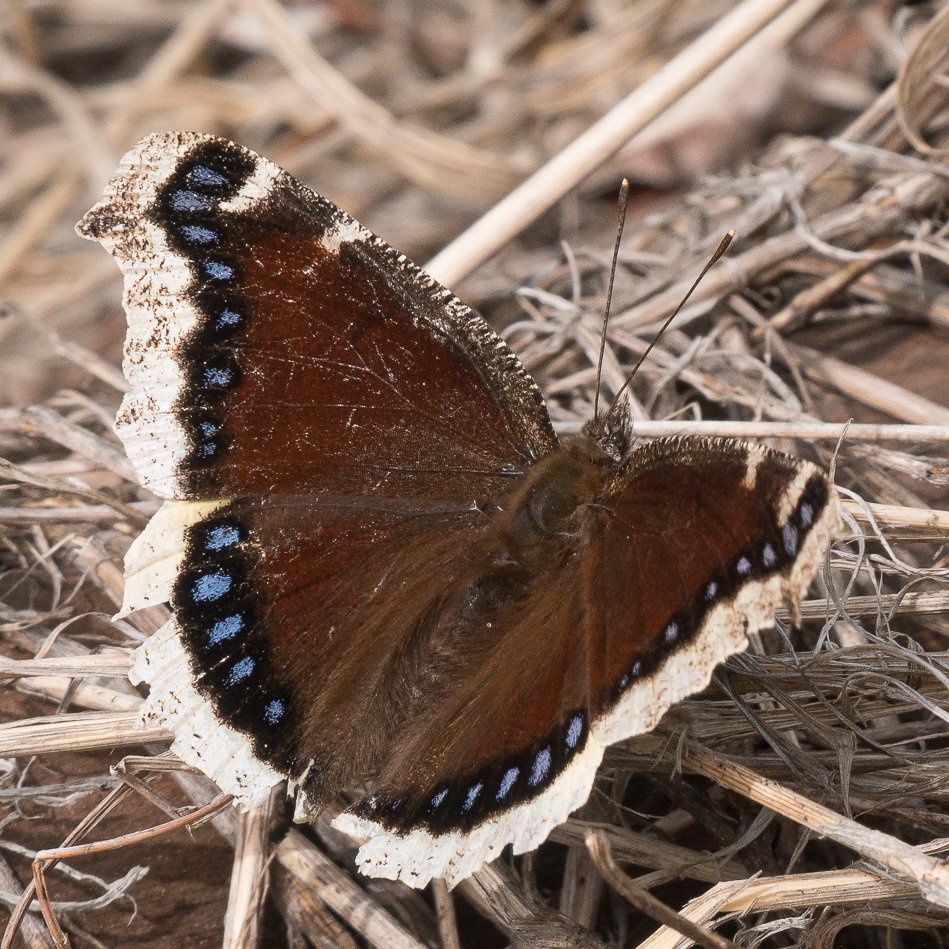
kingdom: Animalia
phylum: Arthropoda
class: Insecta
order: Lepidoptera
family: Nymphalidae
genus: Nymphalis
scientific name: Nymphalis antiopa
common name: Mourning Cloak
